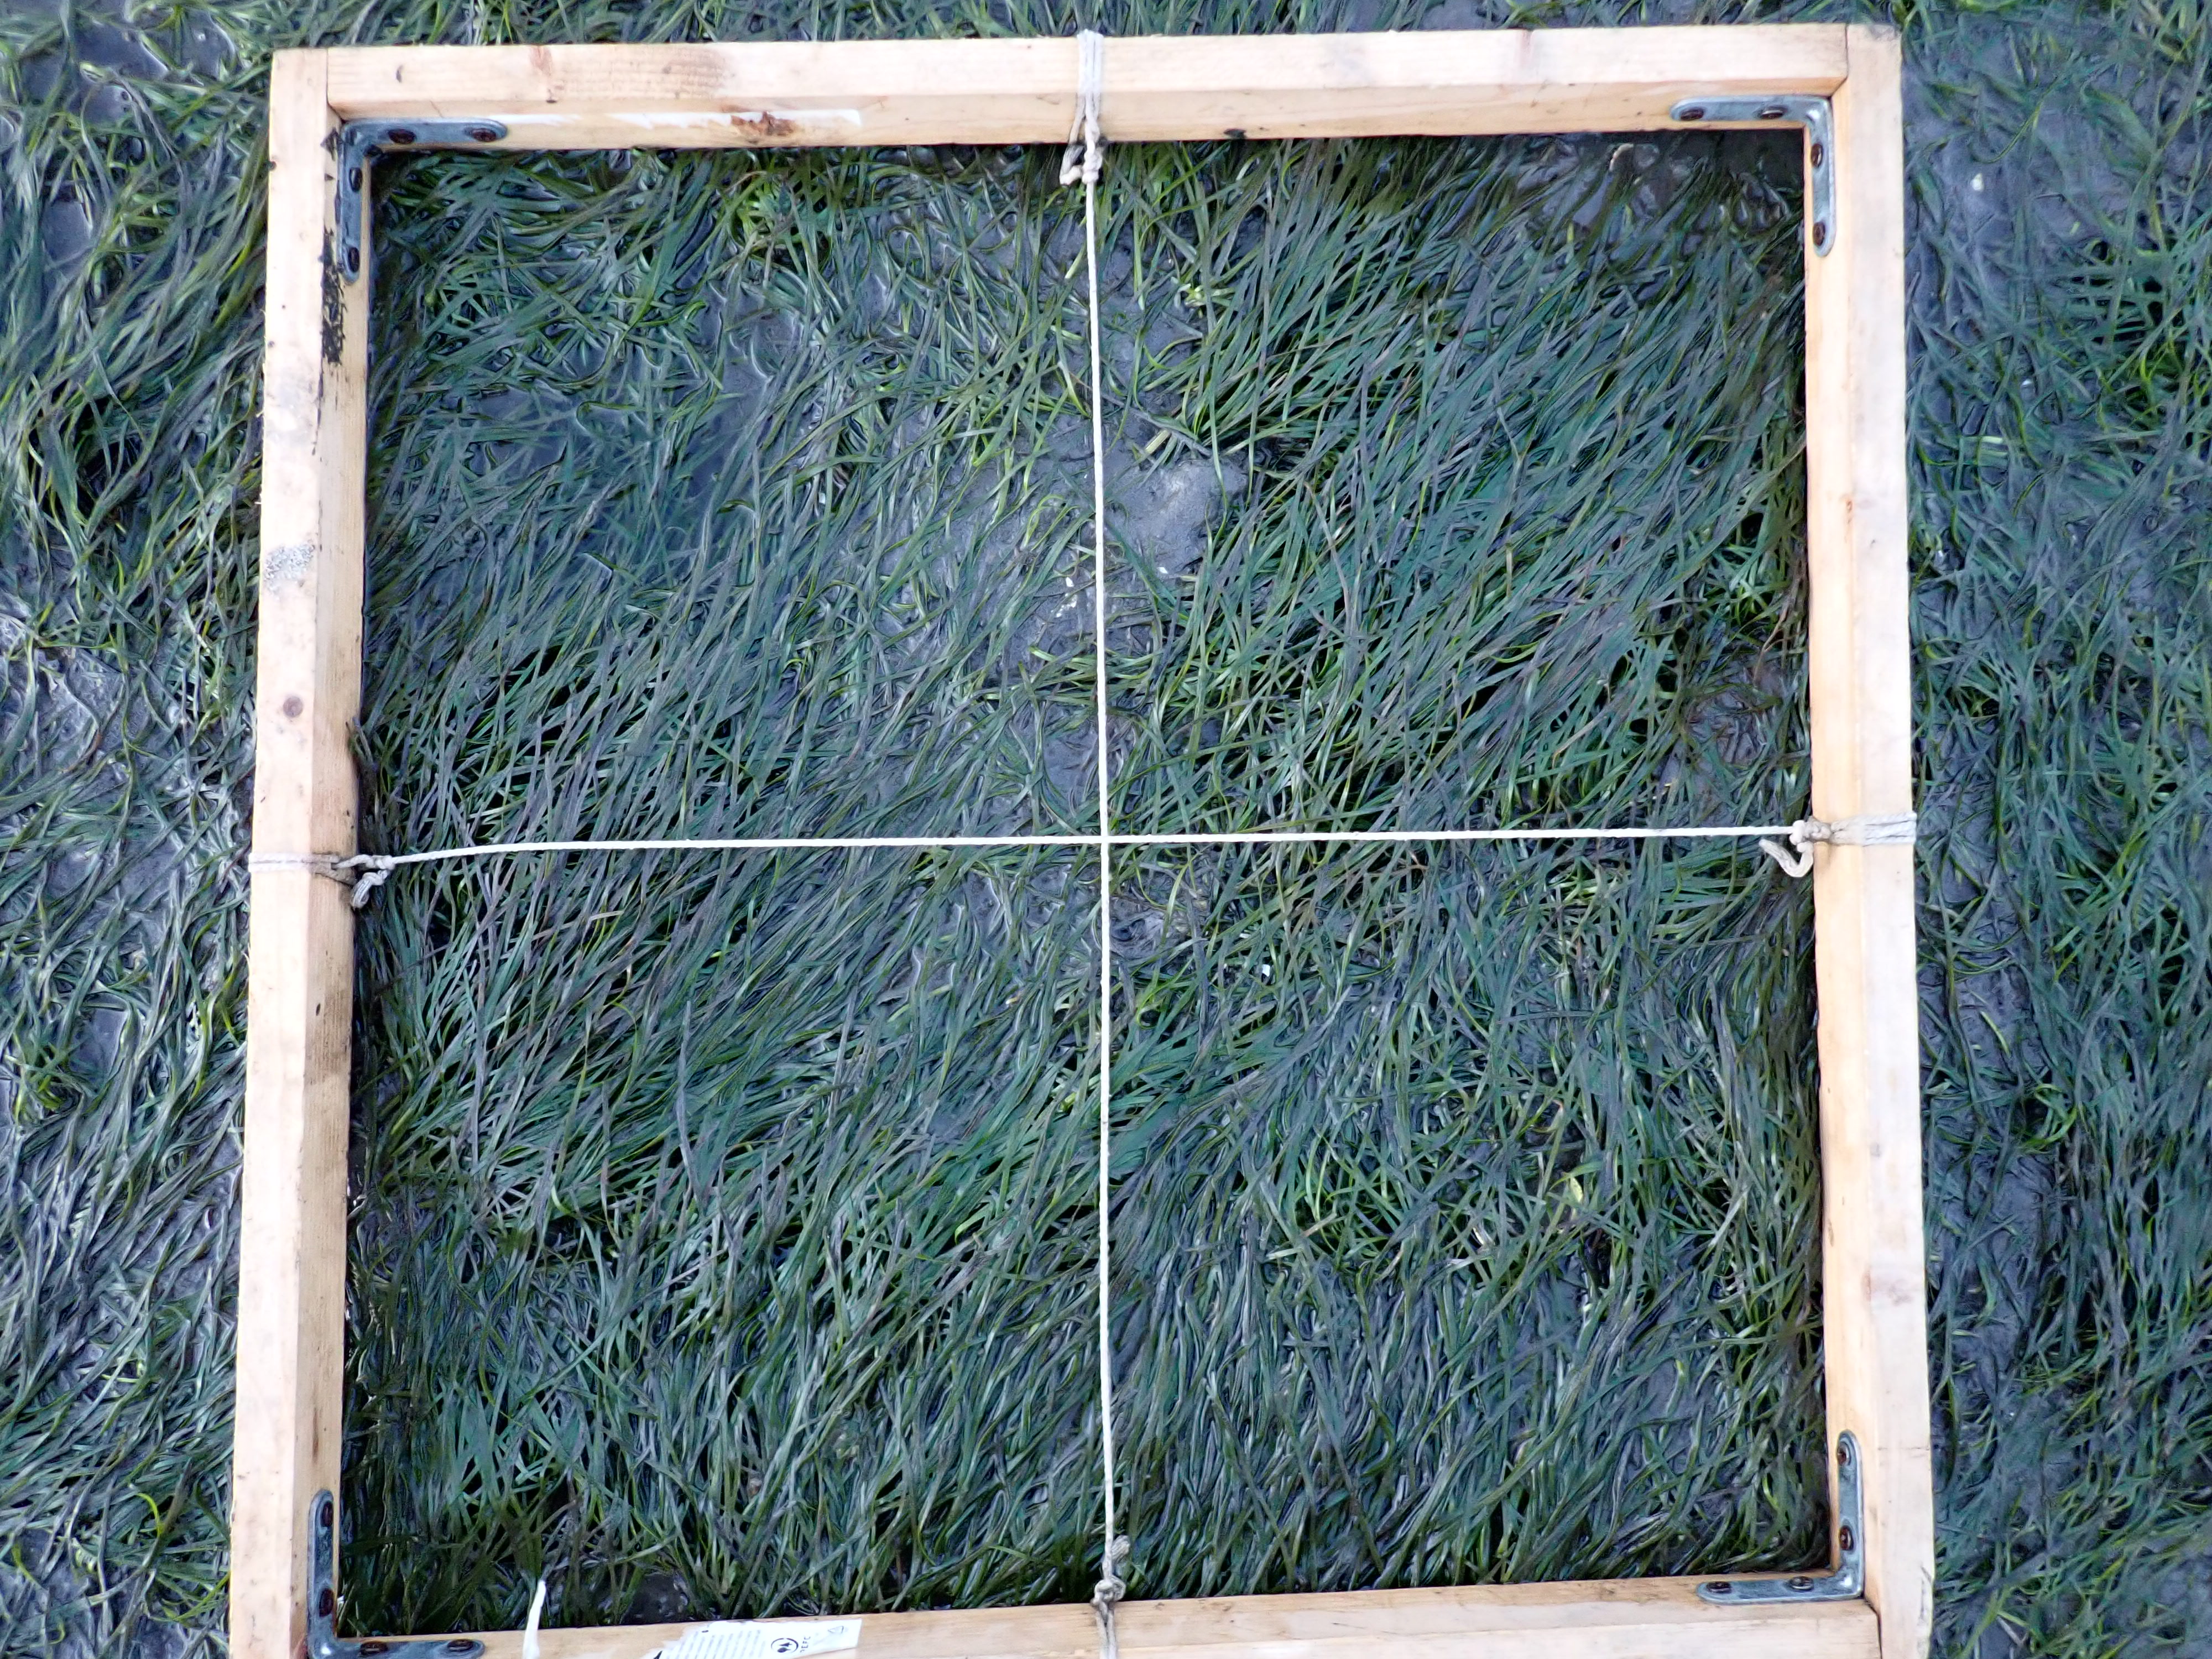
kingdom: Plantae
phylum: Tracheophyta
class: Liliopsida
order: Alismatales
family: Zosteraceae
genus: Zostera
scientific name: Zostera noltii
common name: Dwarf eelgrass
